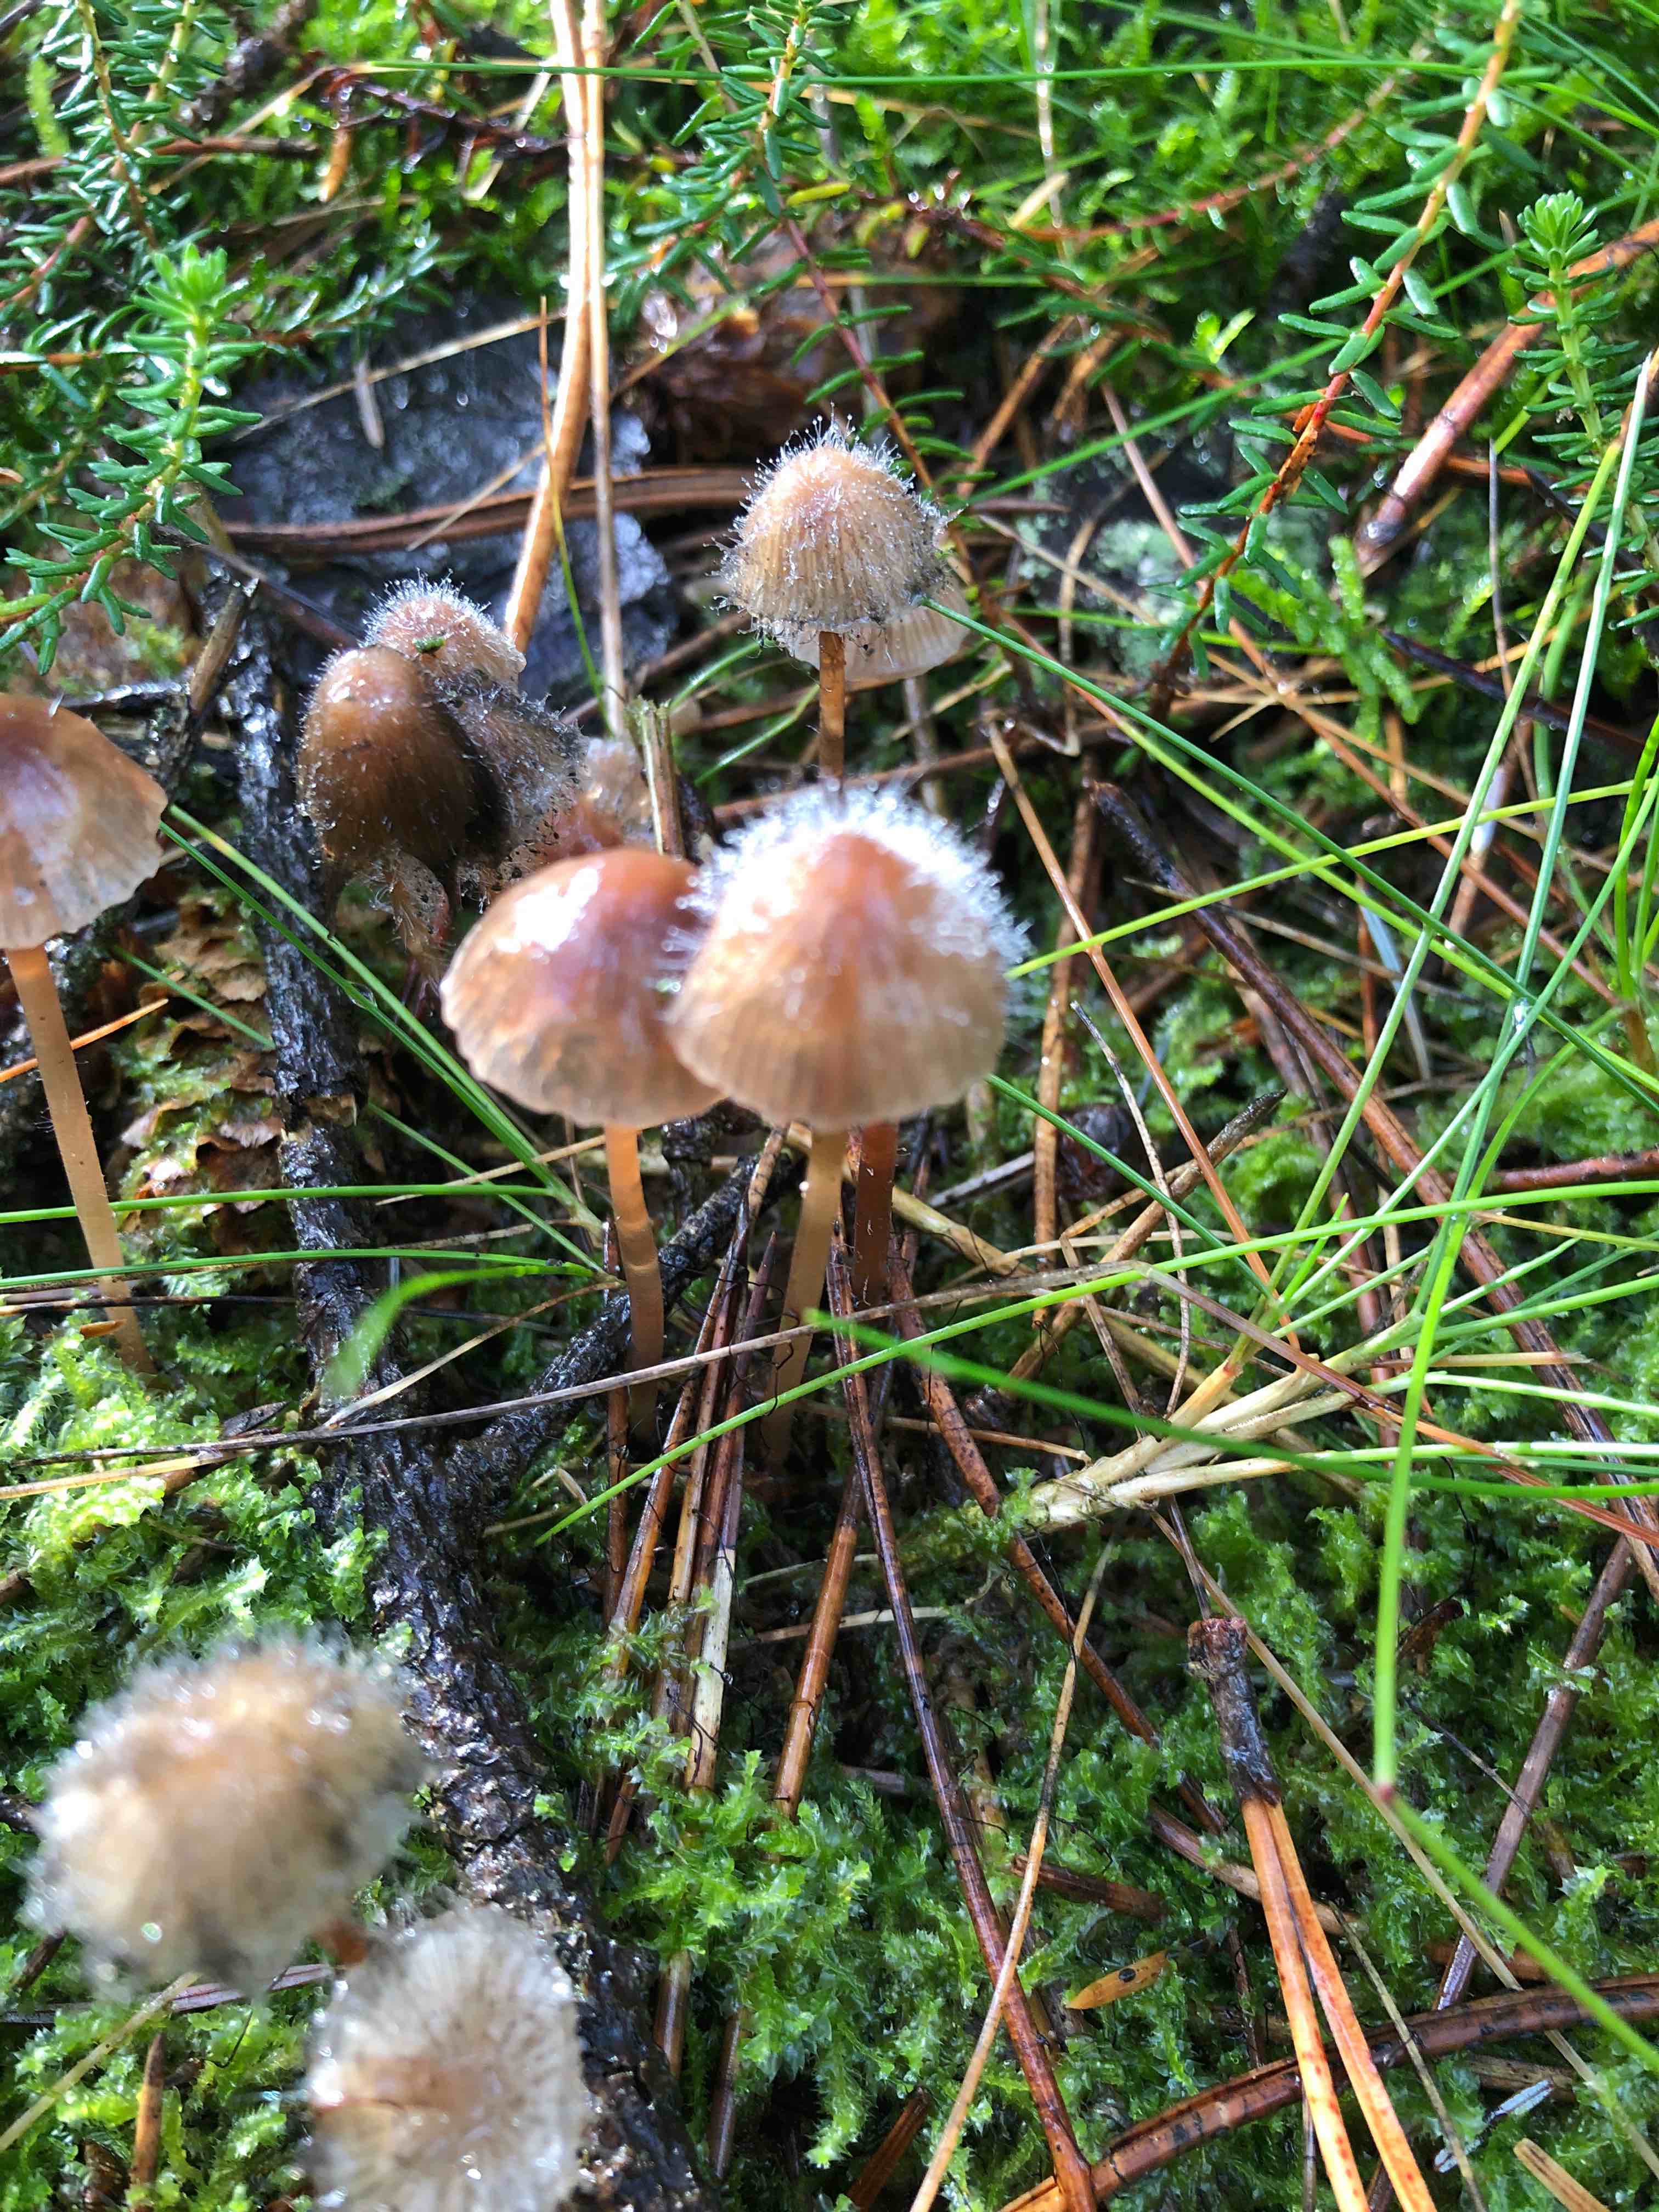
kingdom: Fungi
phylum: Mucoromycota
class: Mucoromycetes
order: Mucorales
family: Phycomycetaceae
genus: Spinellus
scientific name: Spinellus fusiger
